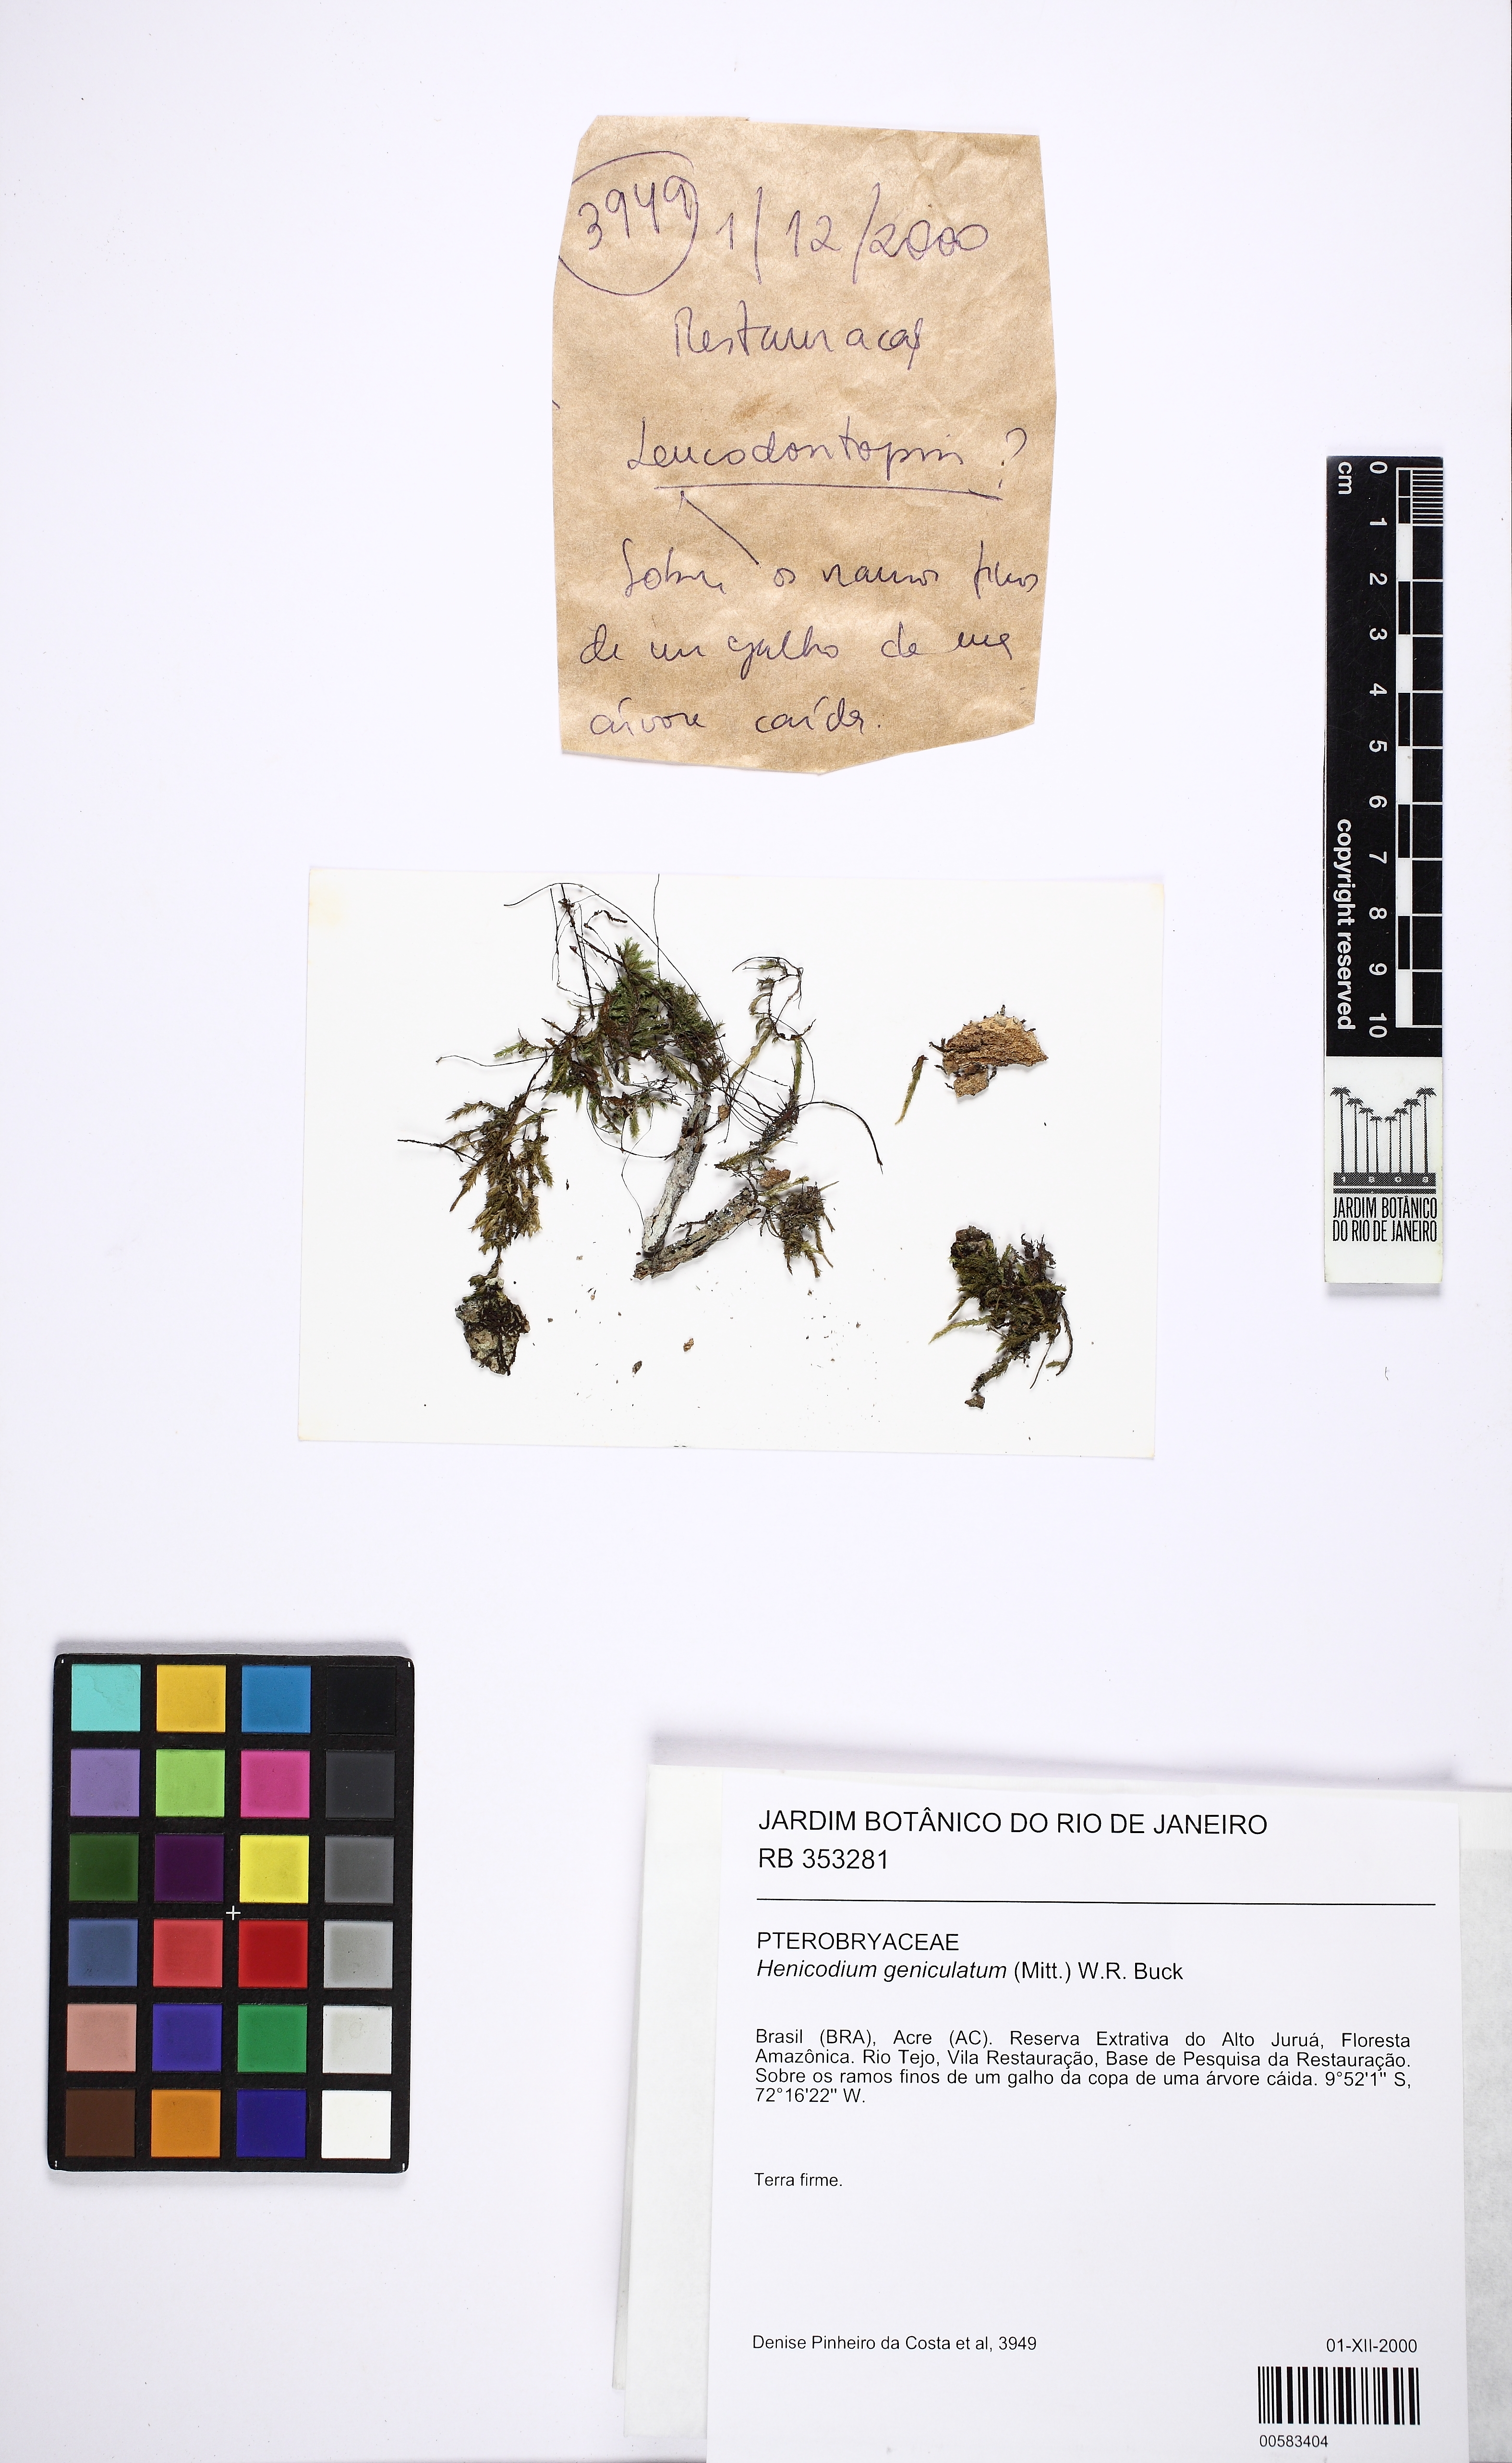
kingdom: Plantae
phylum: Bryophyta
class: Bryopsida
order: Hypnales
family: Pterobryaceae
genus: Henicodium
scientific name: Henicodium geniculatum
